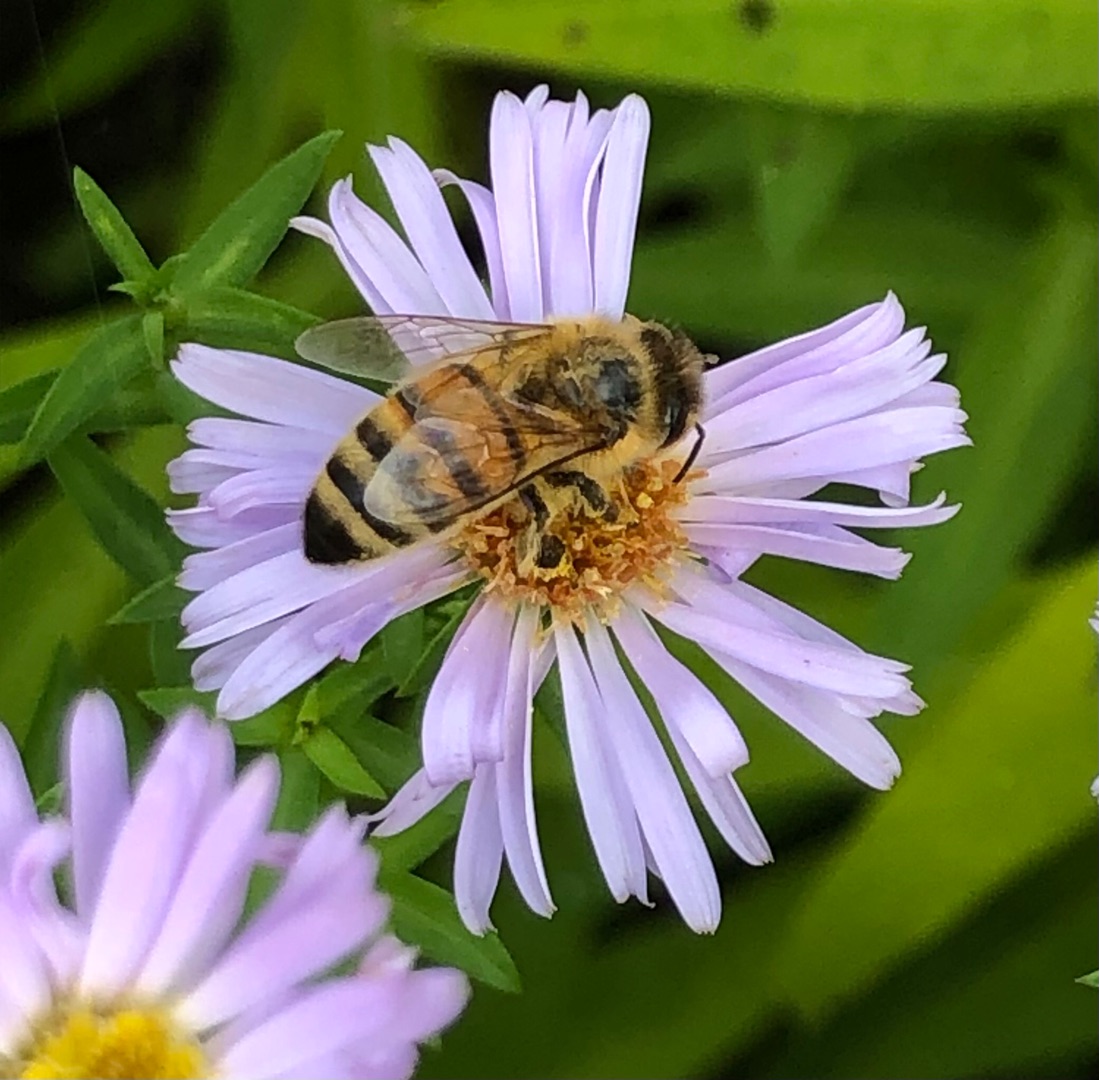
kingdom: Animalia
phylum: Arthropoda
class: Insecta
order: Hymenoptera
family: Apidae
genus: Apis
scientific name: Apis mellifera
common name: Honningbi
